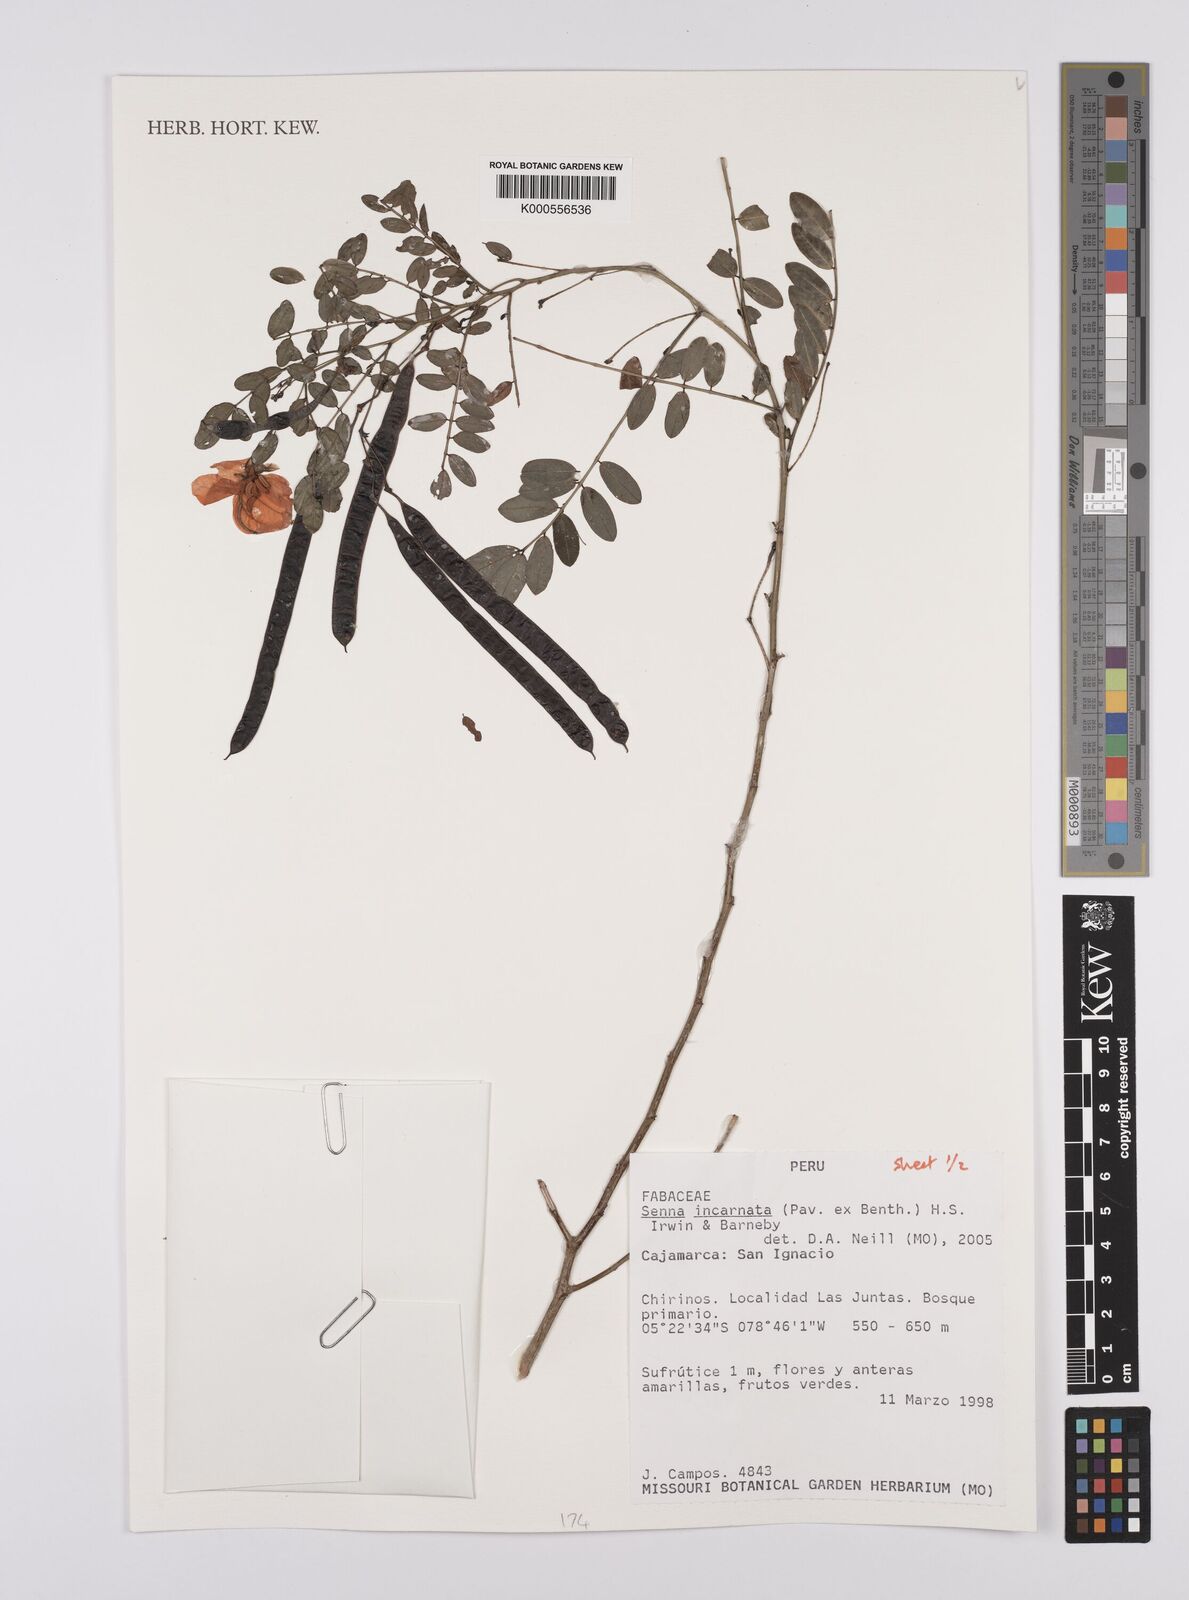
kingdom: Plantae
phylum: Tracheophyta
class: Magnoliopsida
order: Fabales
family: Fabaceae
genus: Senna
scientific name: Senna incarnata
